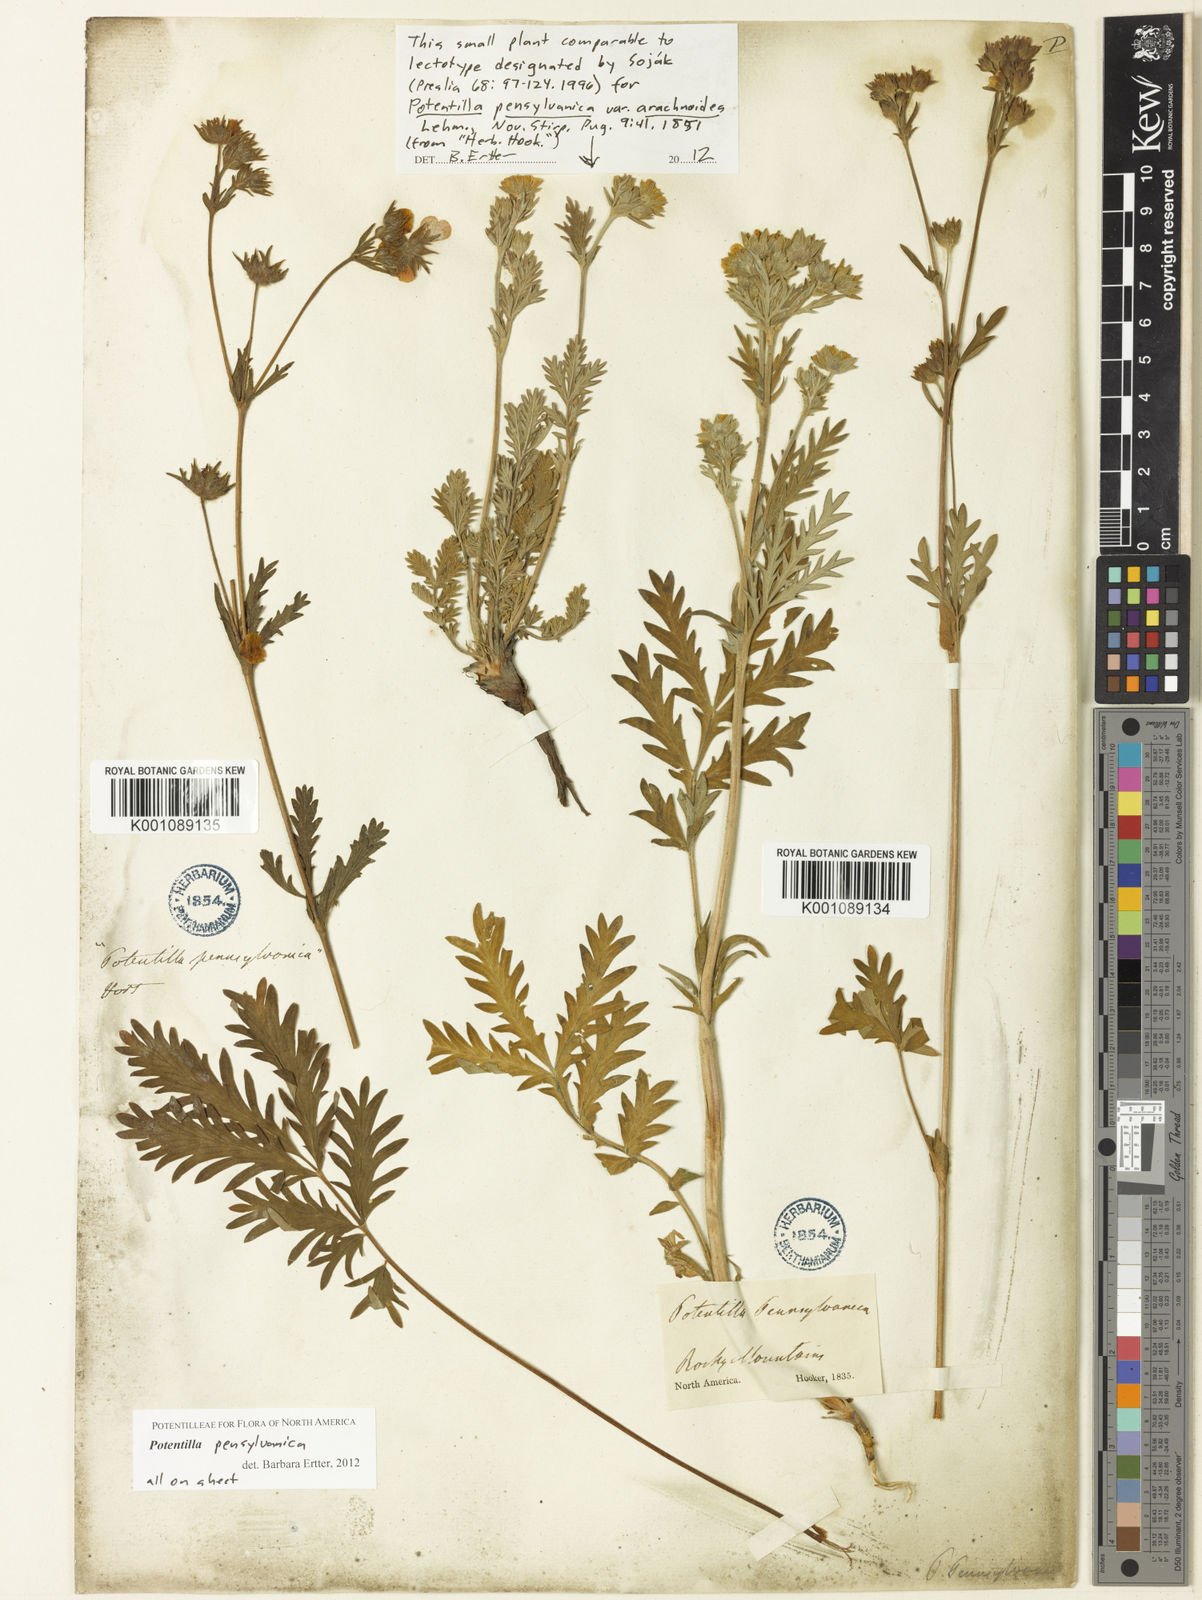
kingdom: Plantae
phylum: Tracheophyta
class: Magnoliopsida
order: Rosales
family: Rosaceae
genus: Potentilla
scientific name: Potentilla pensylvanica
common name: Pennsylvania cinquefoil
